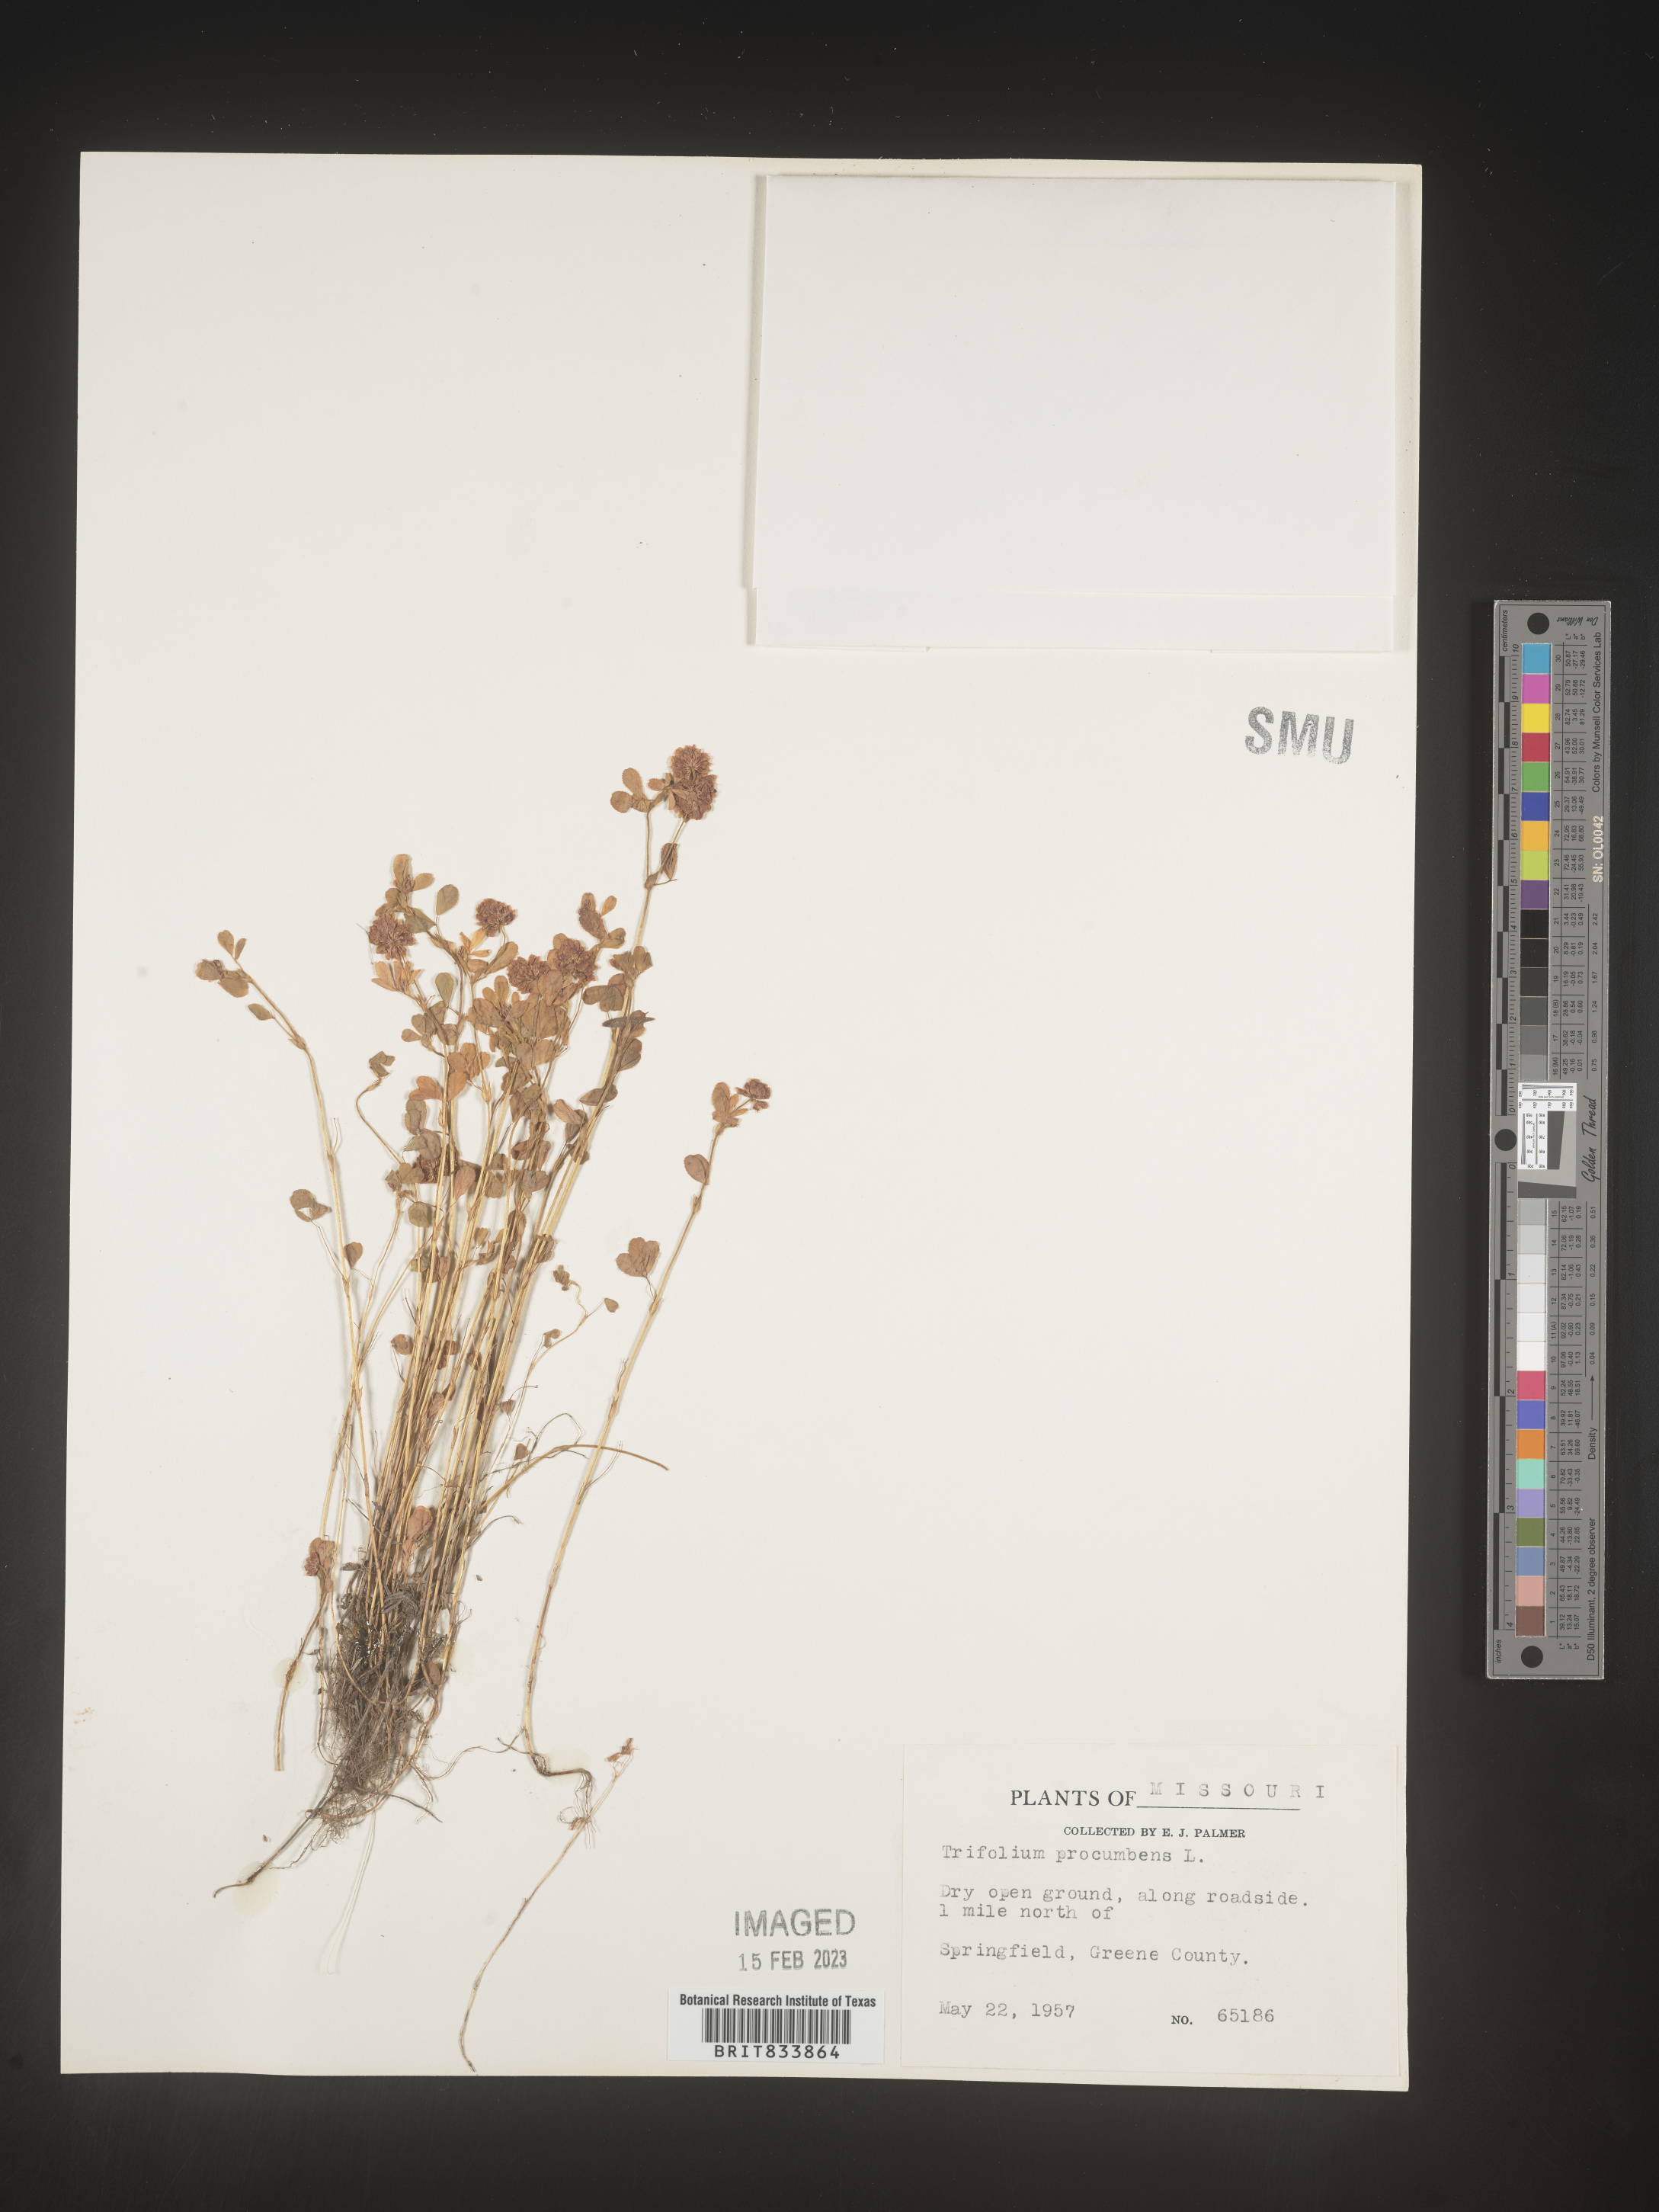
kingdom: Plantae
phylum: Tracheophyta
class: Magnoliopsida
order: Fabales
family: Fabaceae
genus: Trifolium
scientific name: Trifolium campestre
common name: Field clover
